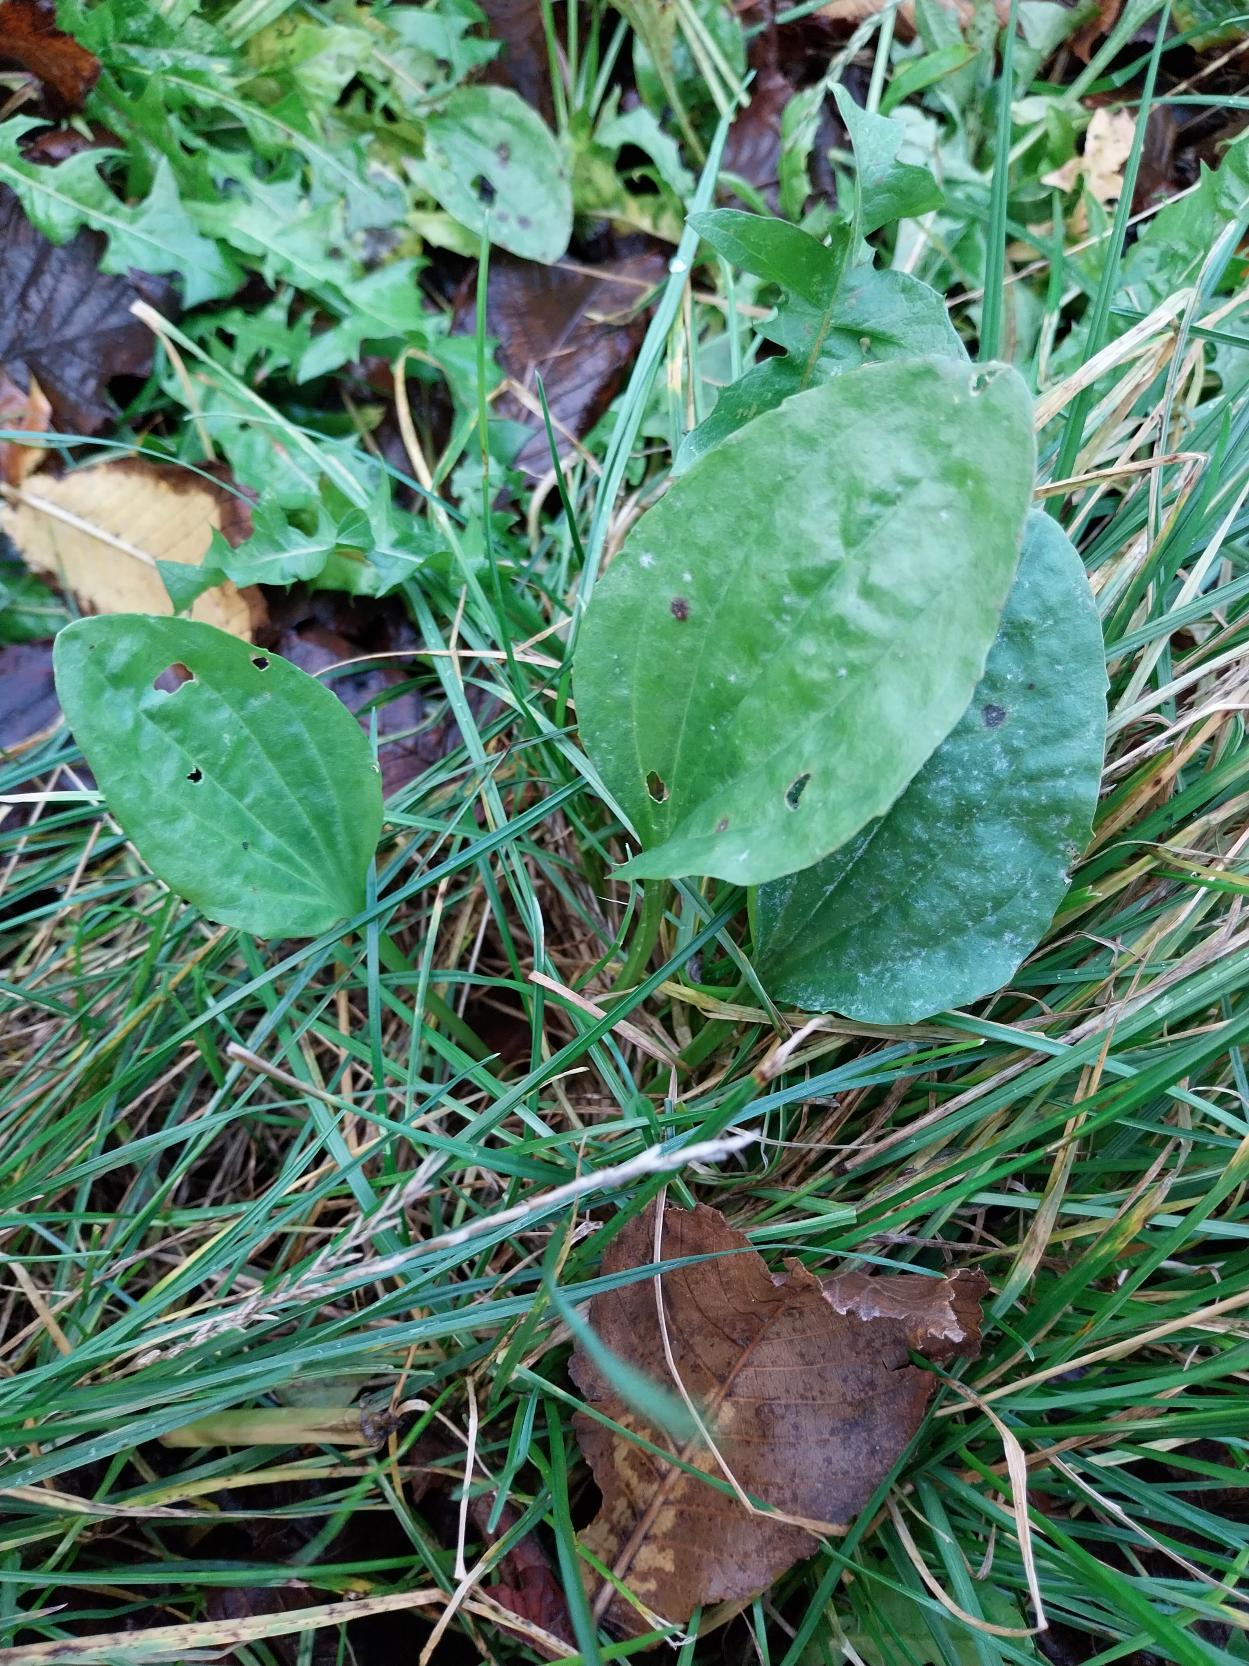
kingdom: Plantae
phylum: Tracheophyta
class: Magnoliopsida
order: Lamiales
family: Plantaginaceae
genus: Plantago
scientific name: Plantago major
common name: Glat vejbred
